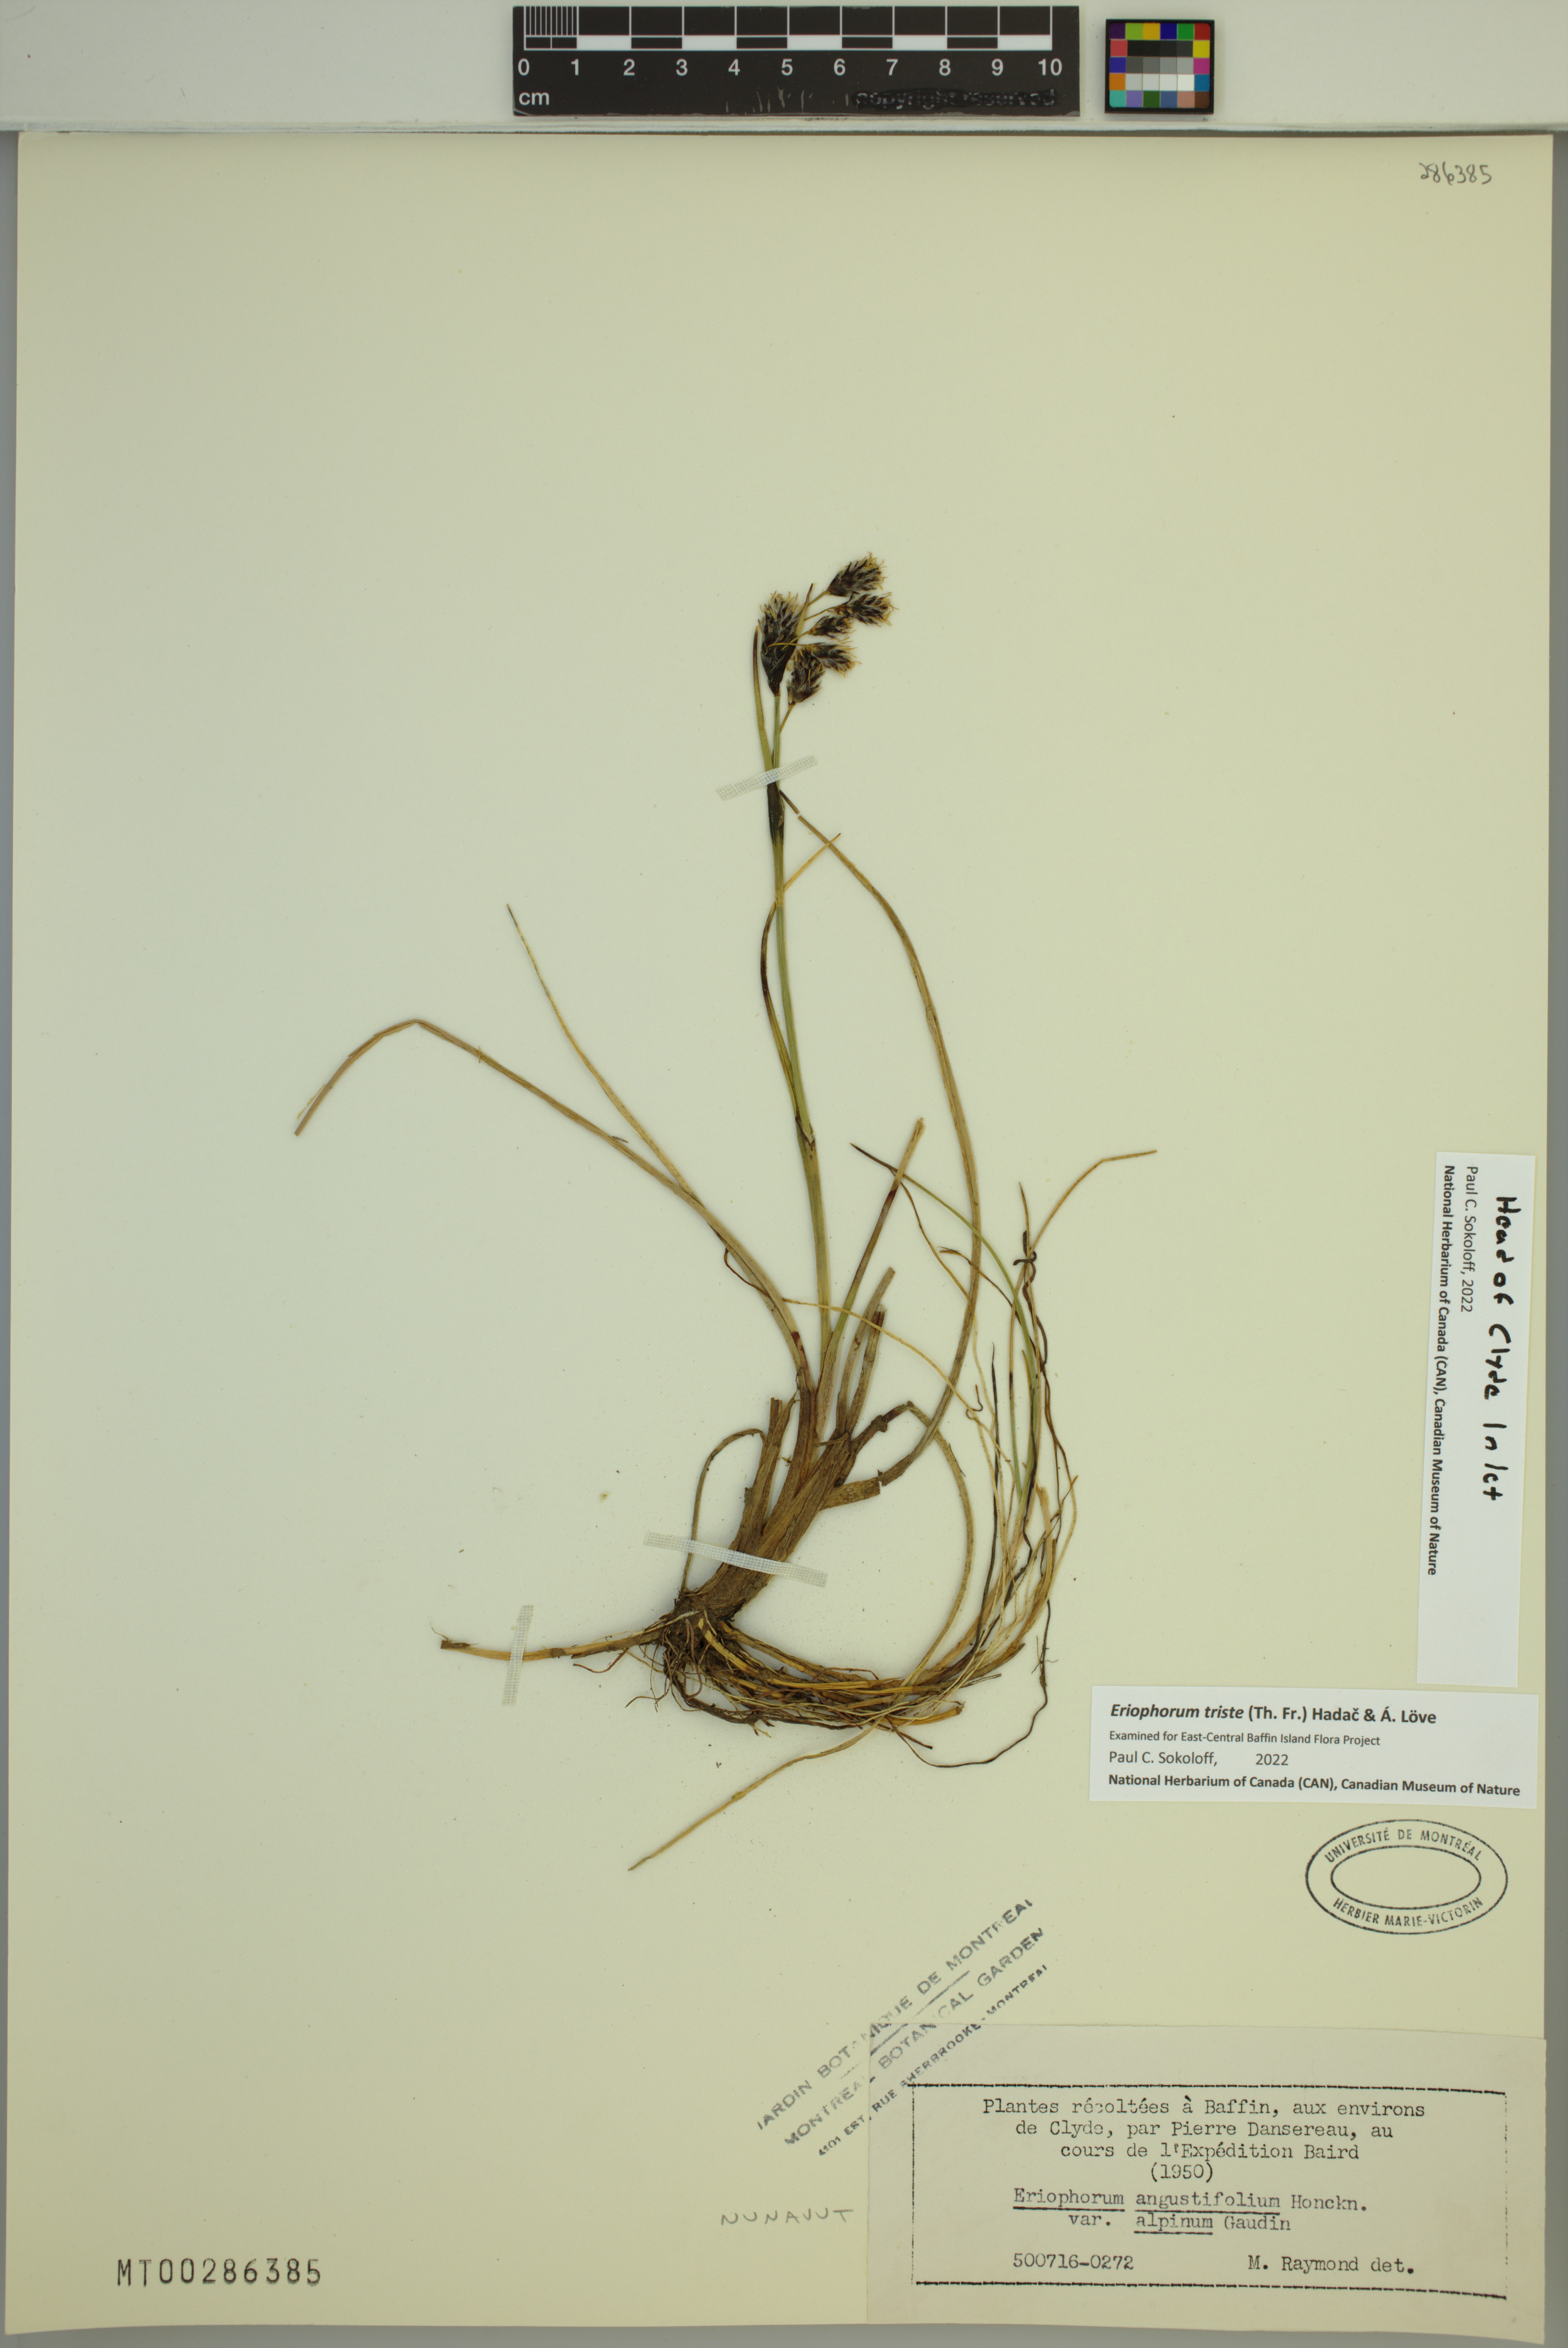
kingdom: Plantae
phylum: Tracheophyta
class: Liliopsida
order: Poales
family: Cyperaceae
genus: Eriophorum
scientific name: Eriophorum triste
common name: Tall cottongrass
